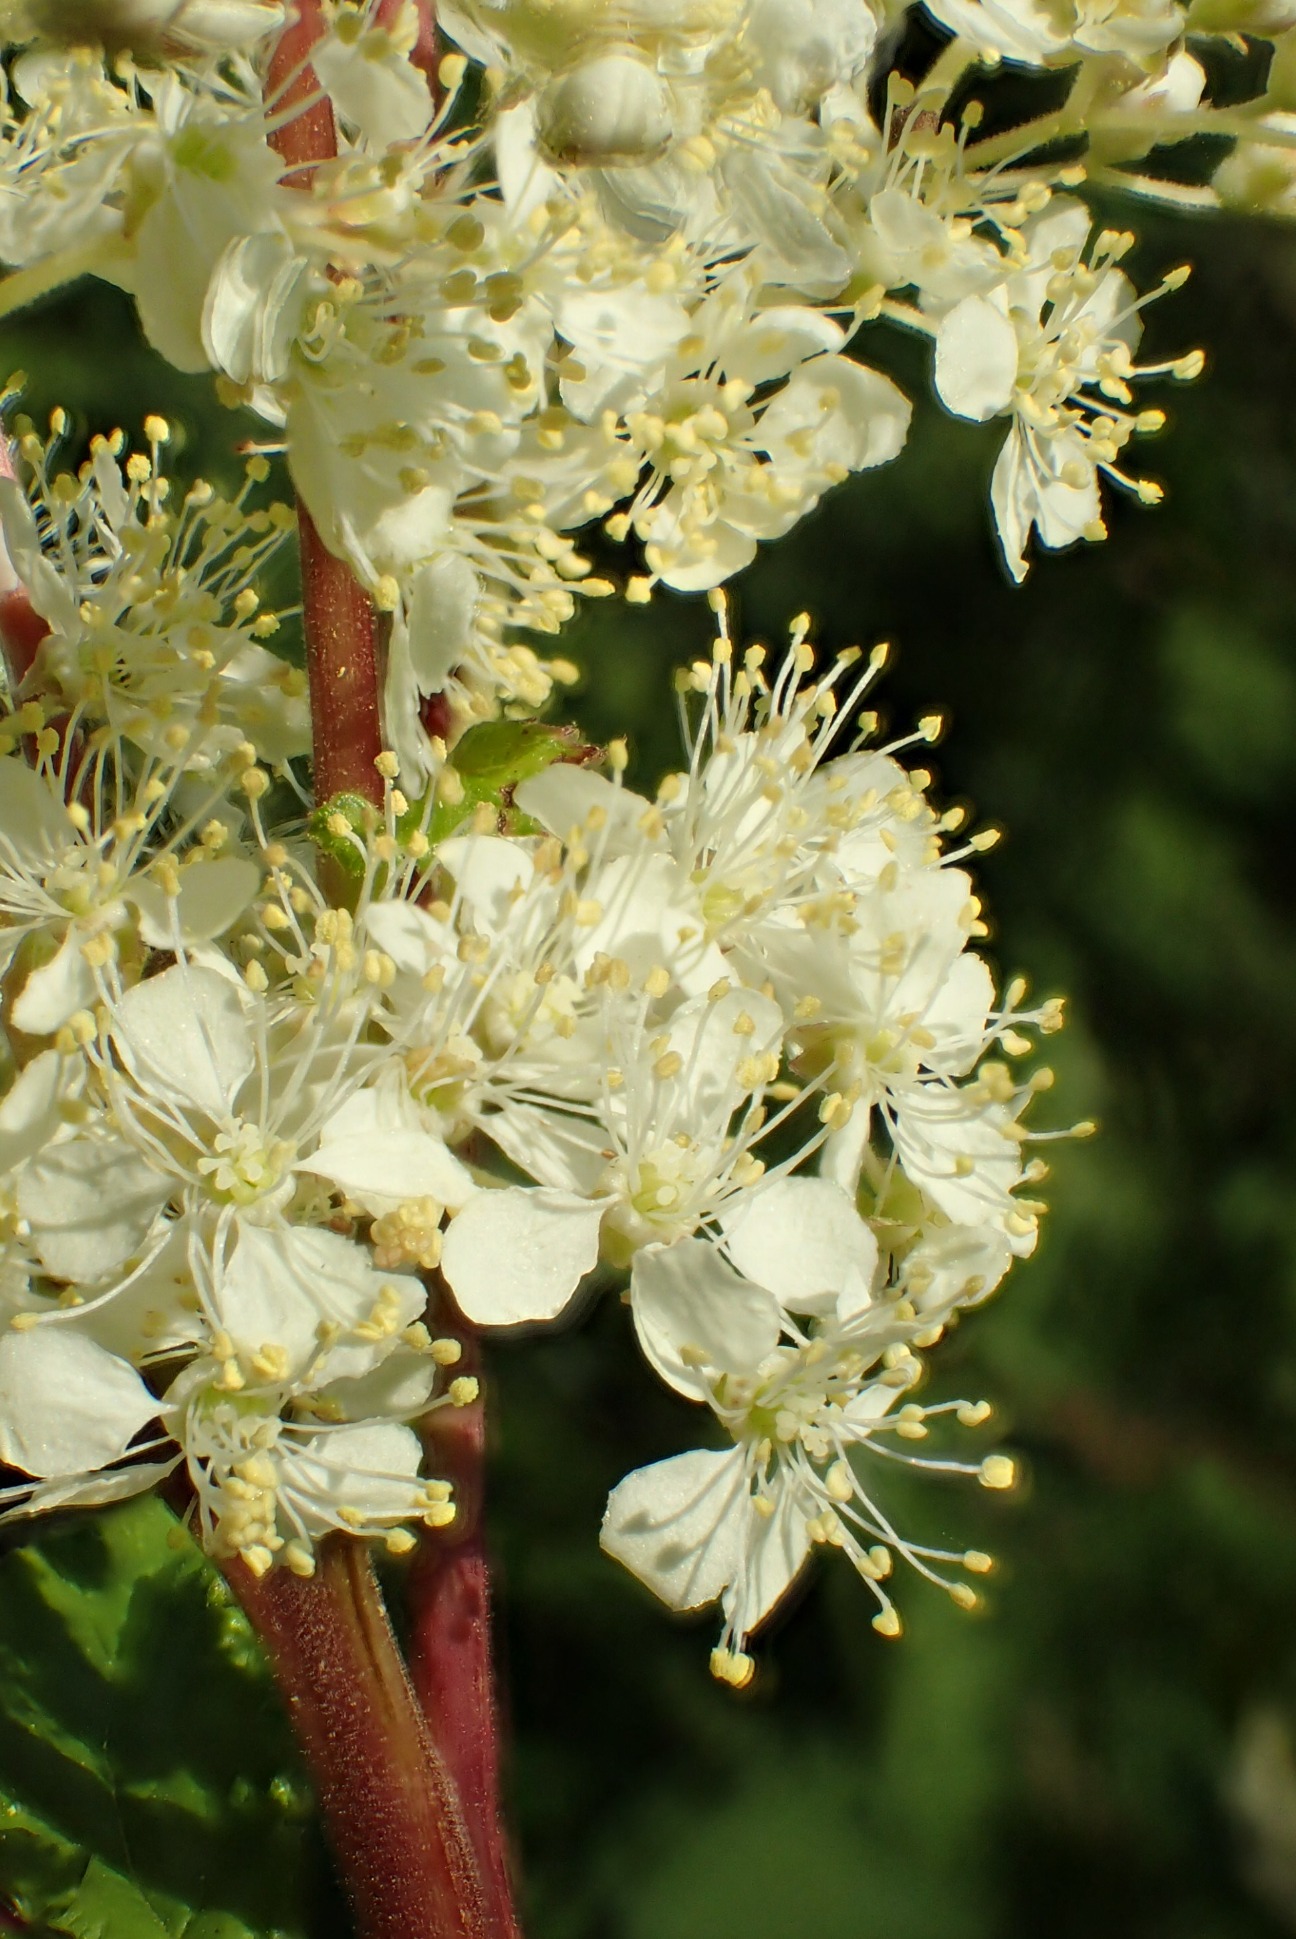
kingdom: Plantae
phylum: Tracheophyta
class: Magnoliopsida
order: Rosales
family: Rosaceae
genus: Filipendula
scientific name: Filipendula ulmaria
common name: Almindelig mjødurt
